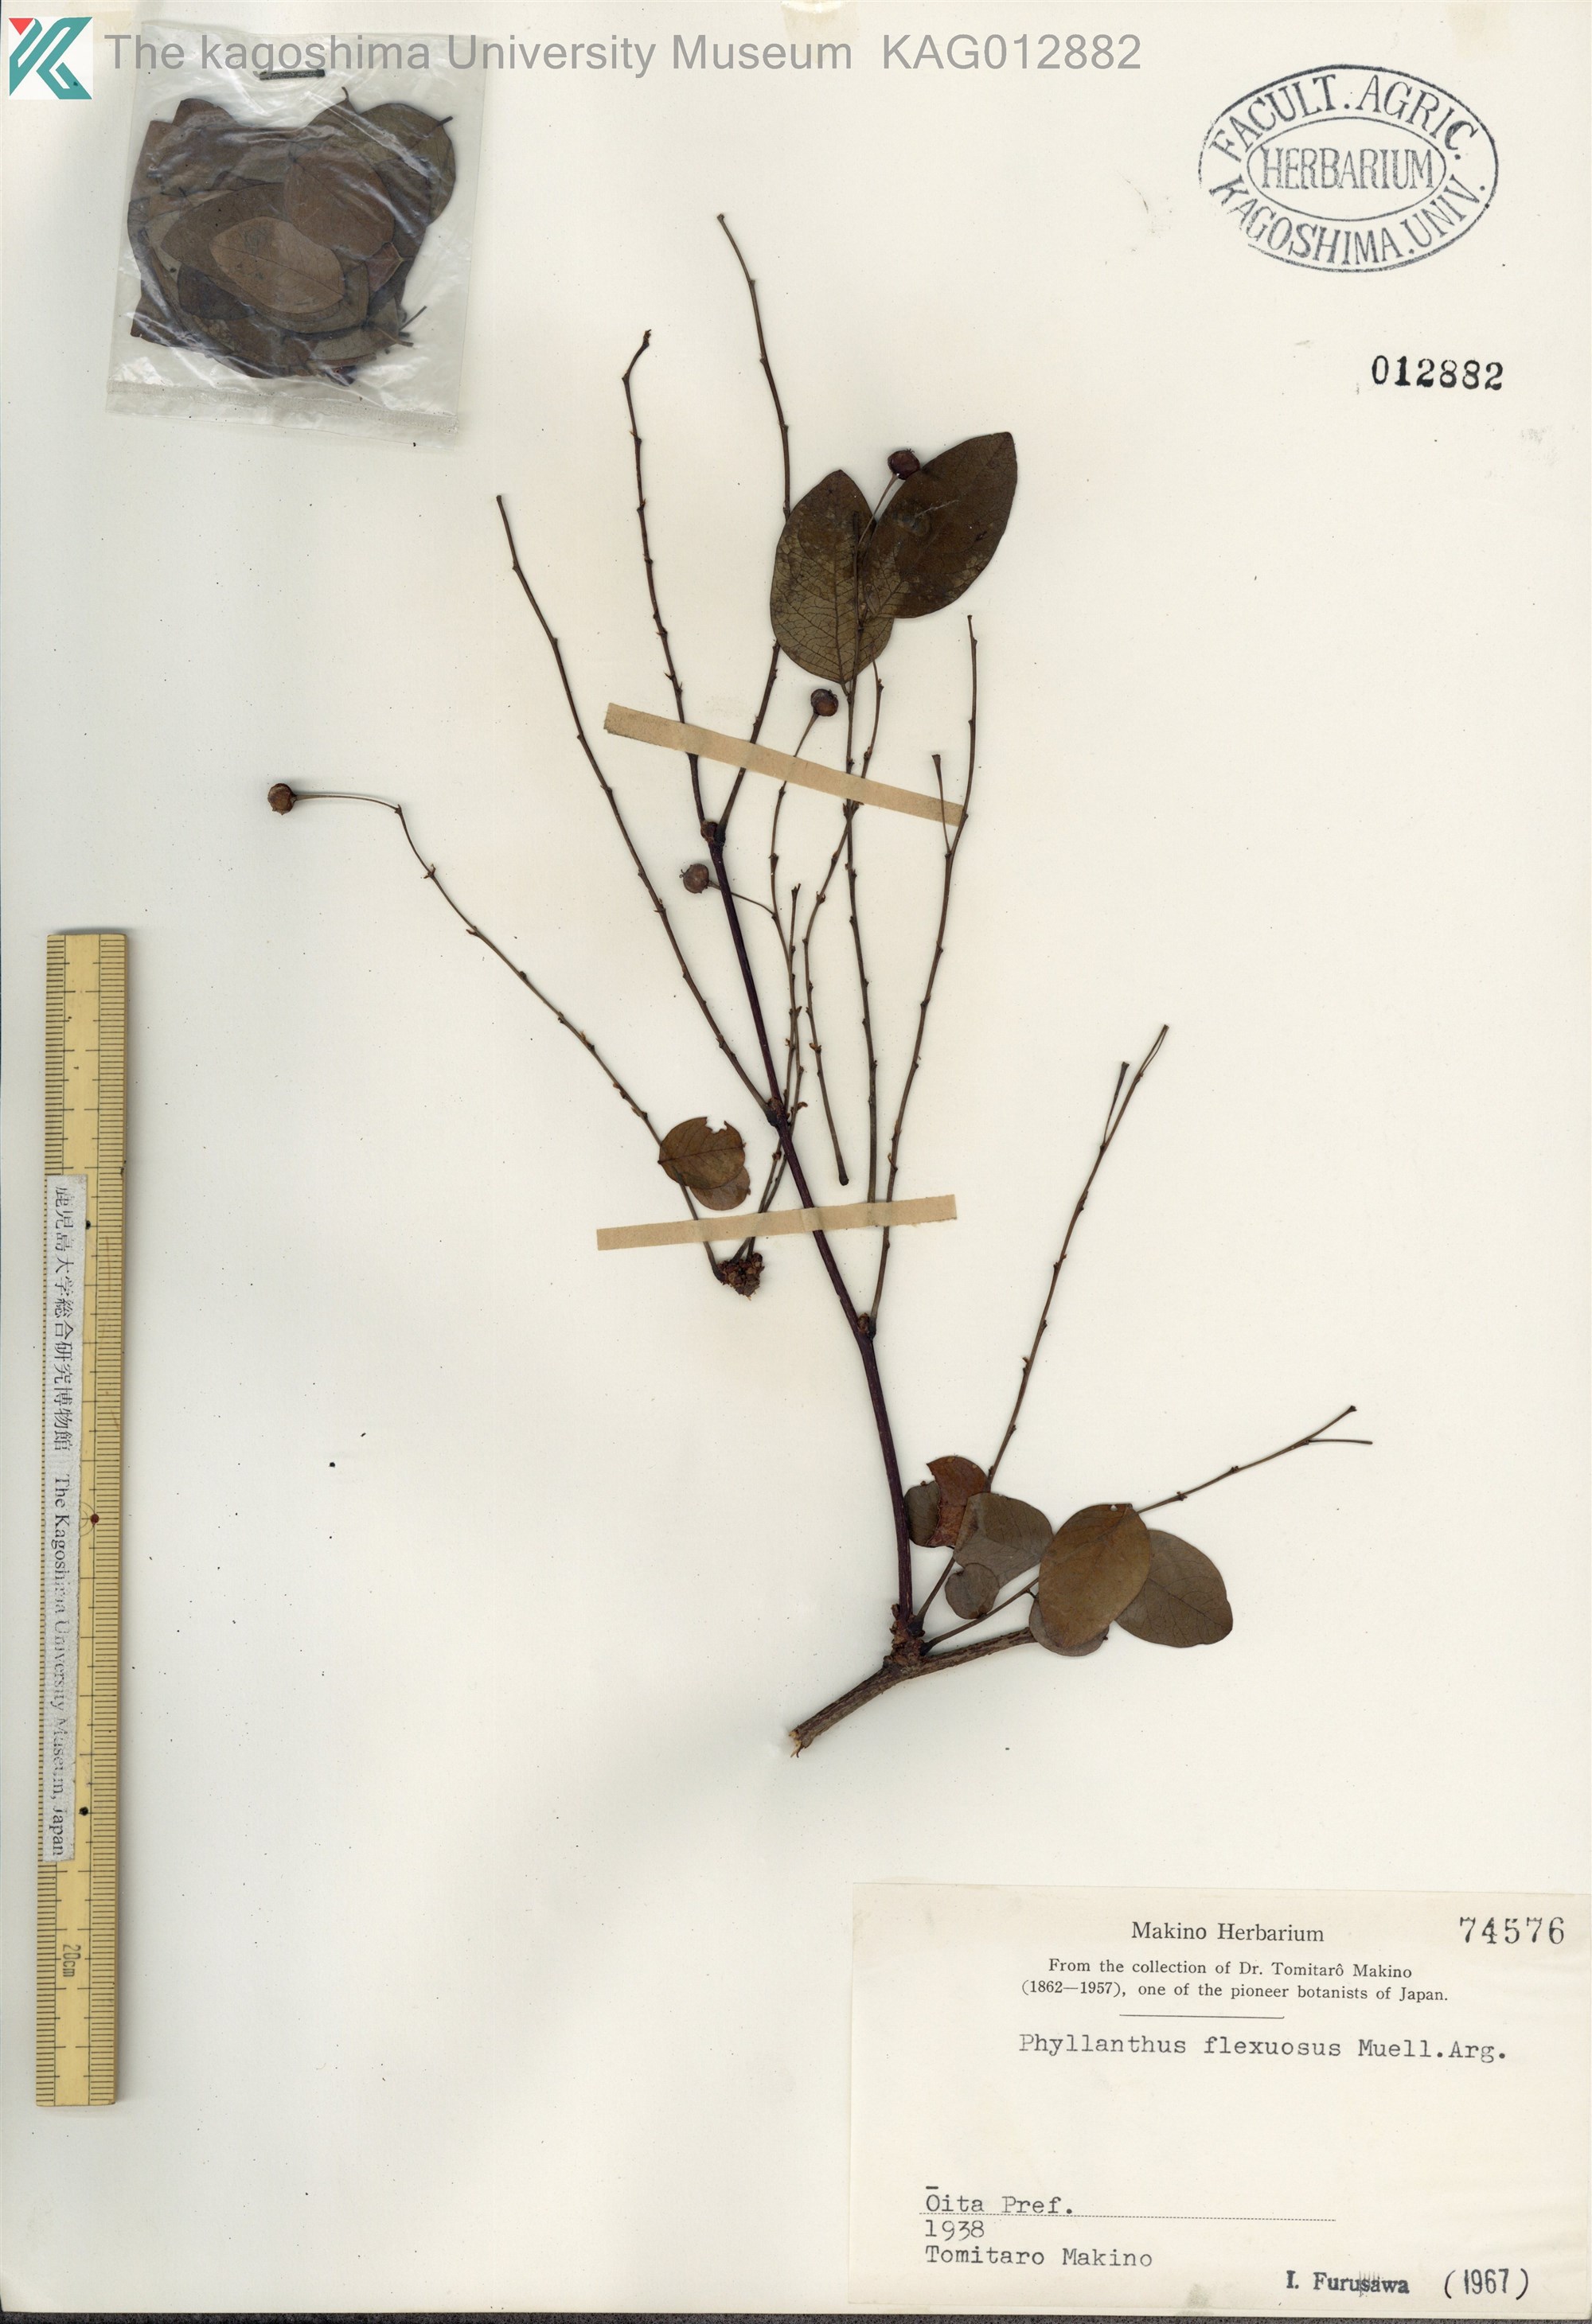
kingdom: Plantae
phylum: Tracheophyta
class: Magnoliopsida
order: Malpighiales
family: Phyllanthaceae
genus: Phyllanthus
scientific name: Phyllanthus flexuosus
